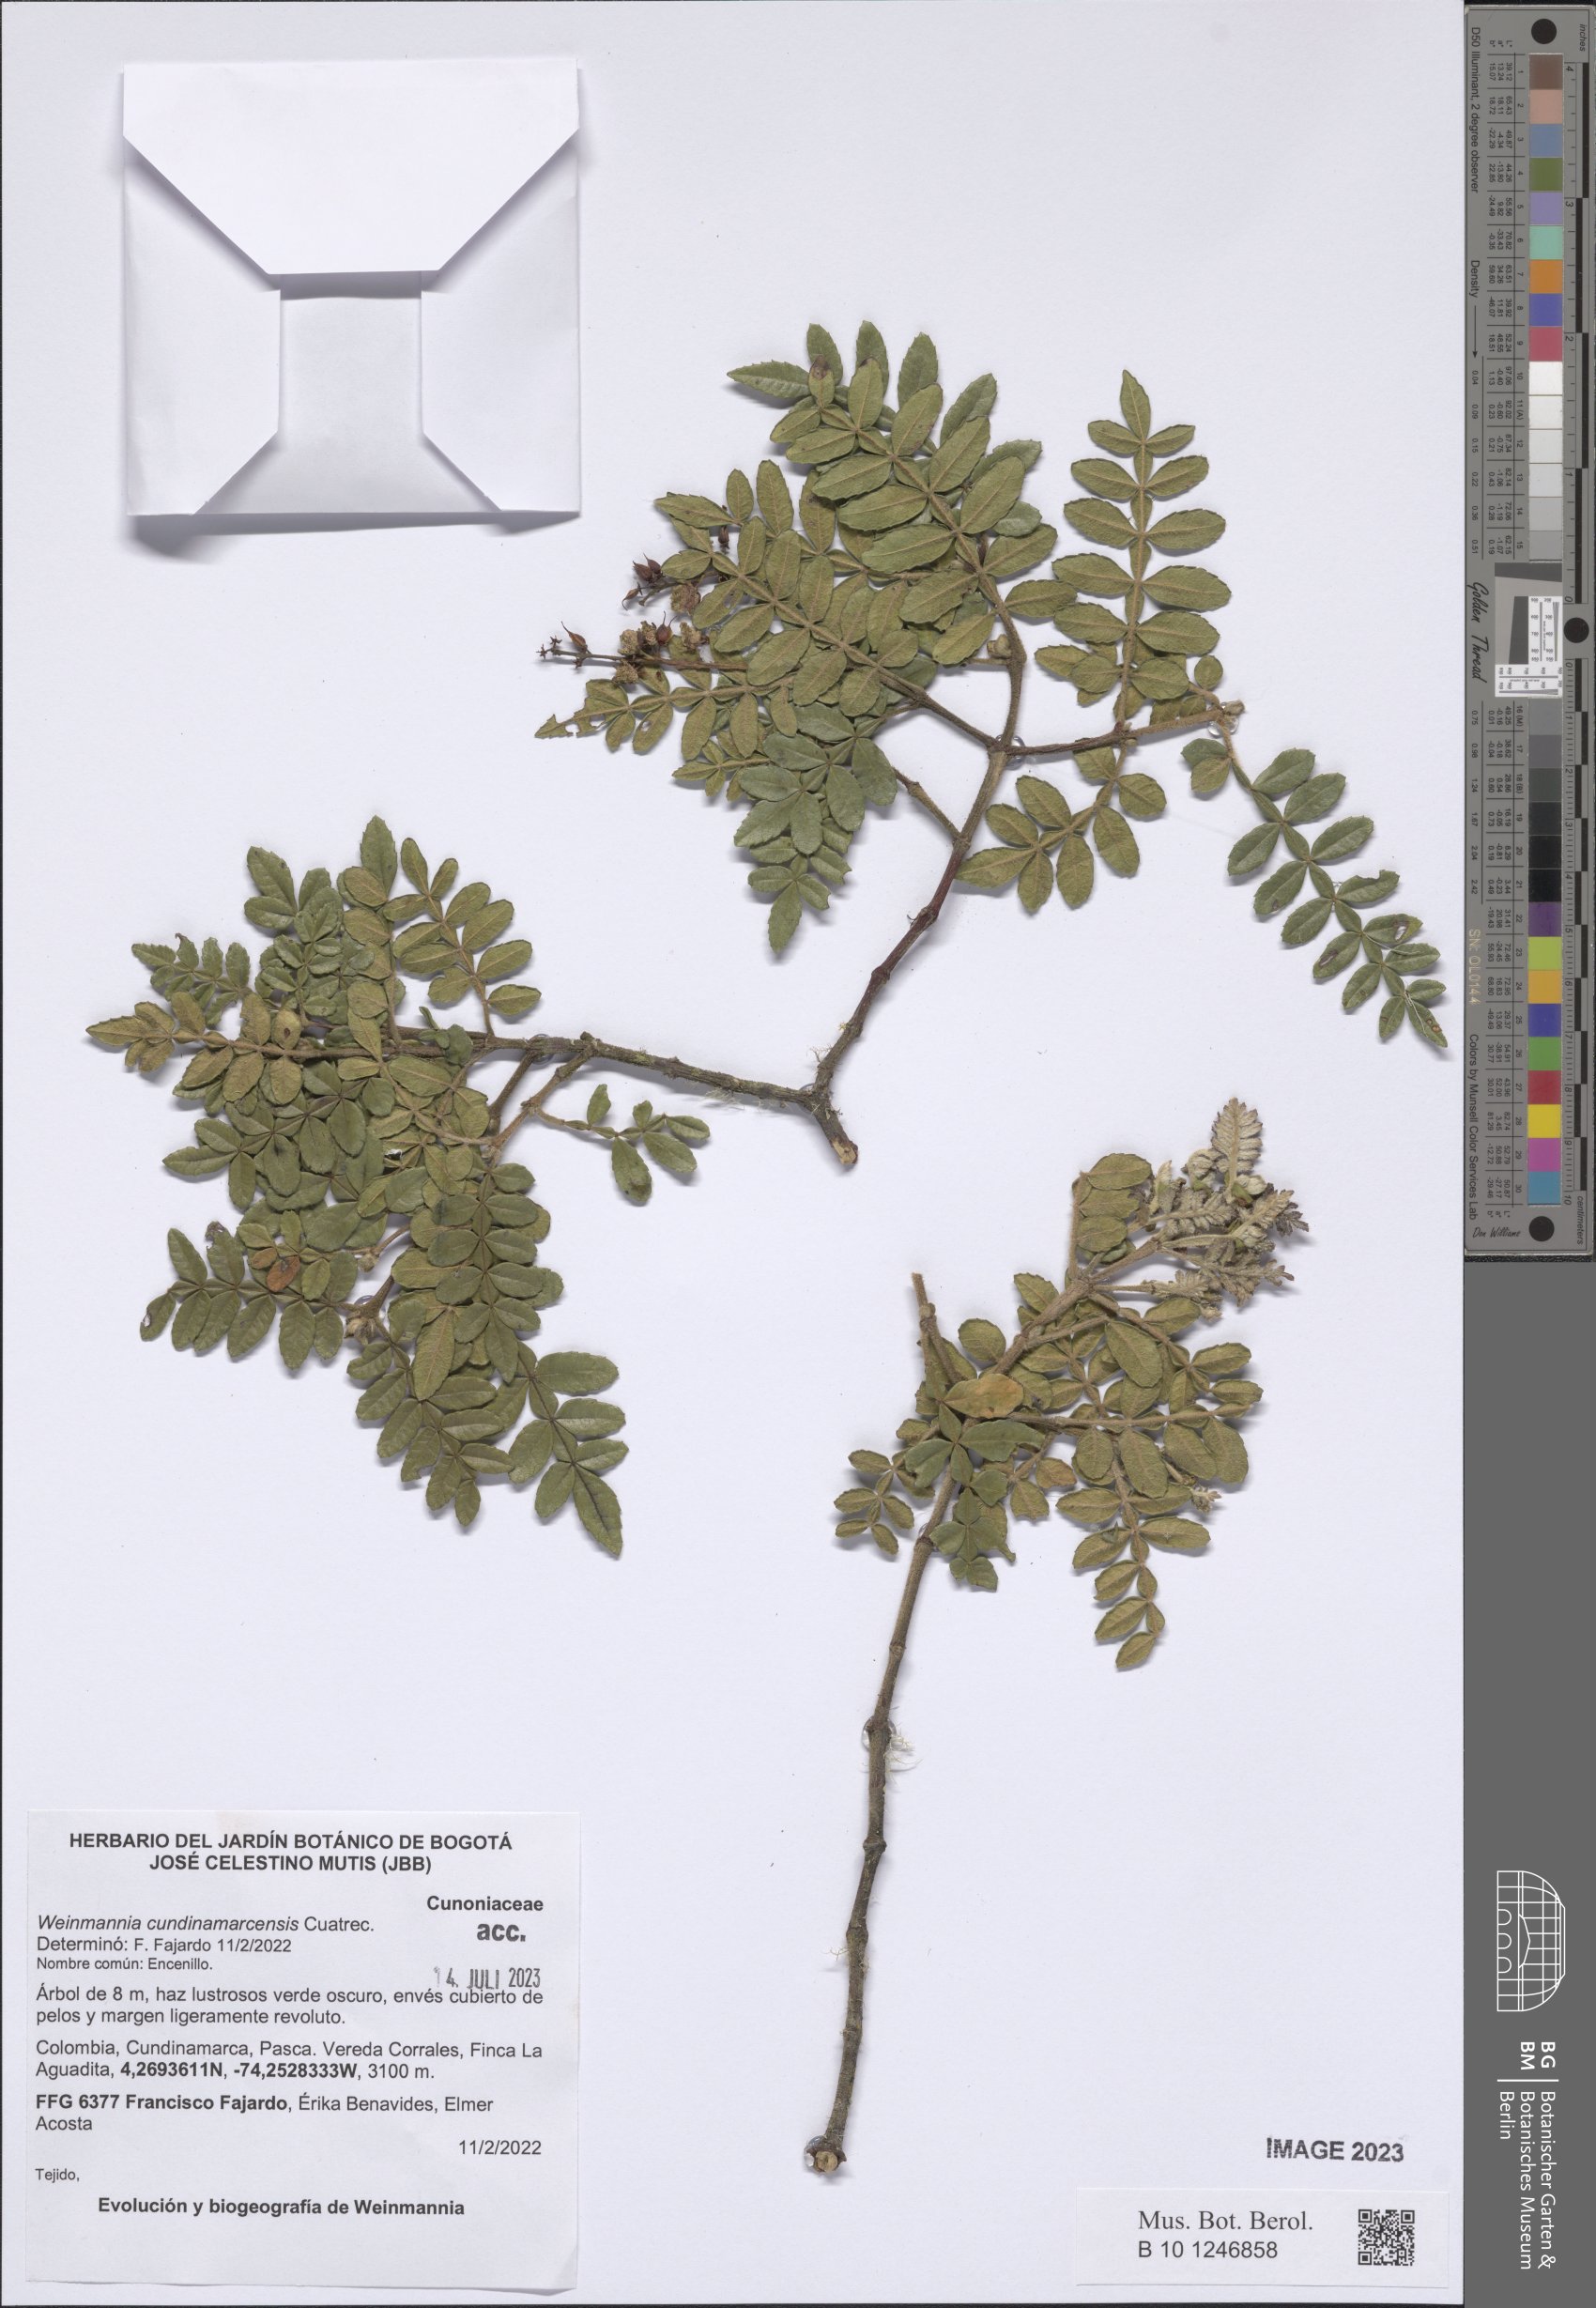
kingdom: Plantae
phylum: Tracheophyta
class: Magnoliopsida
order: Oxalidales
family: Cunoniaceae
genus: Weinmannia
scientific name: Weinmannia cundinamarcensis
